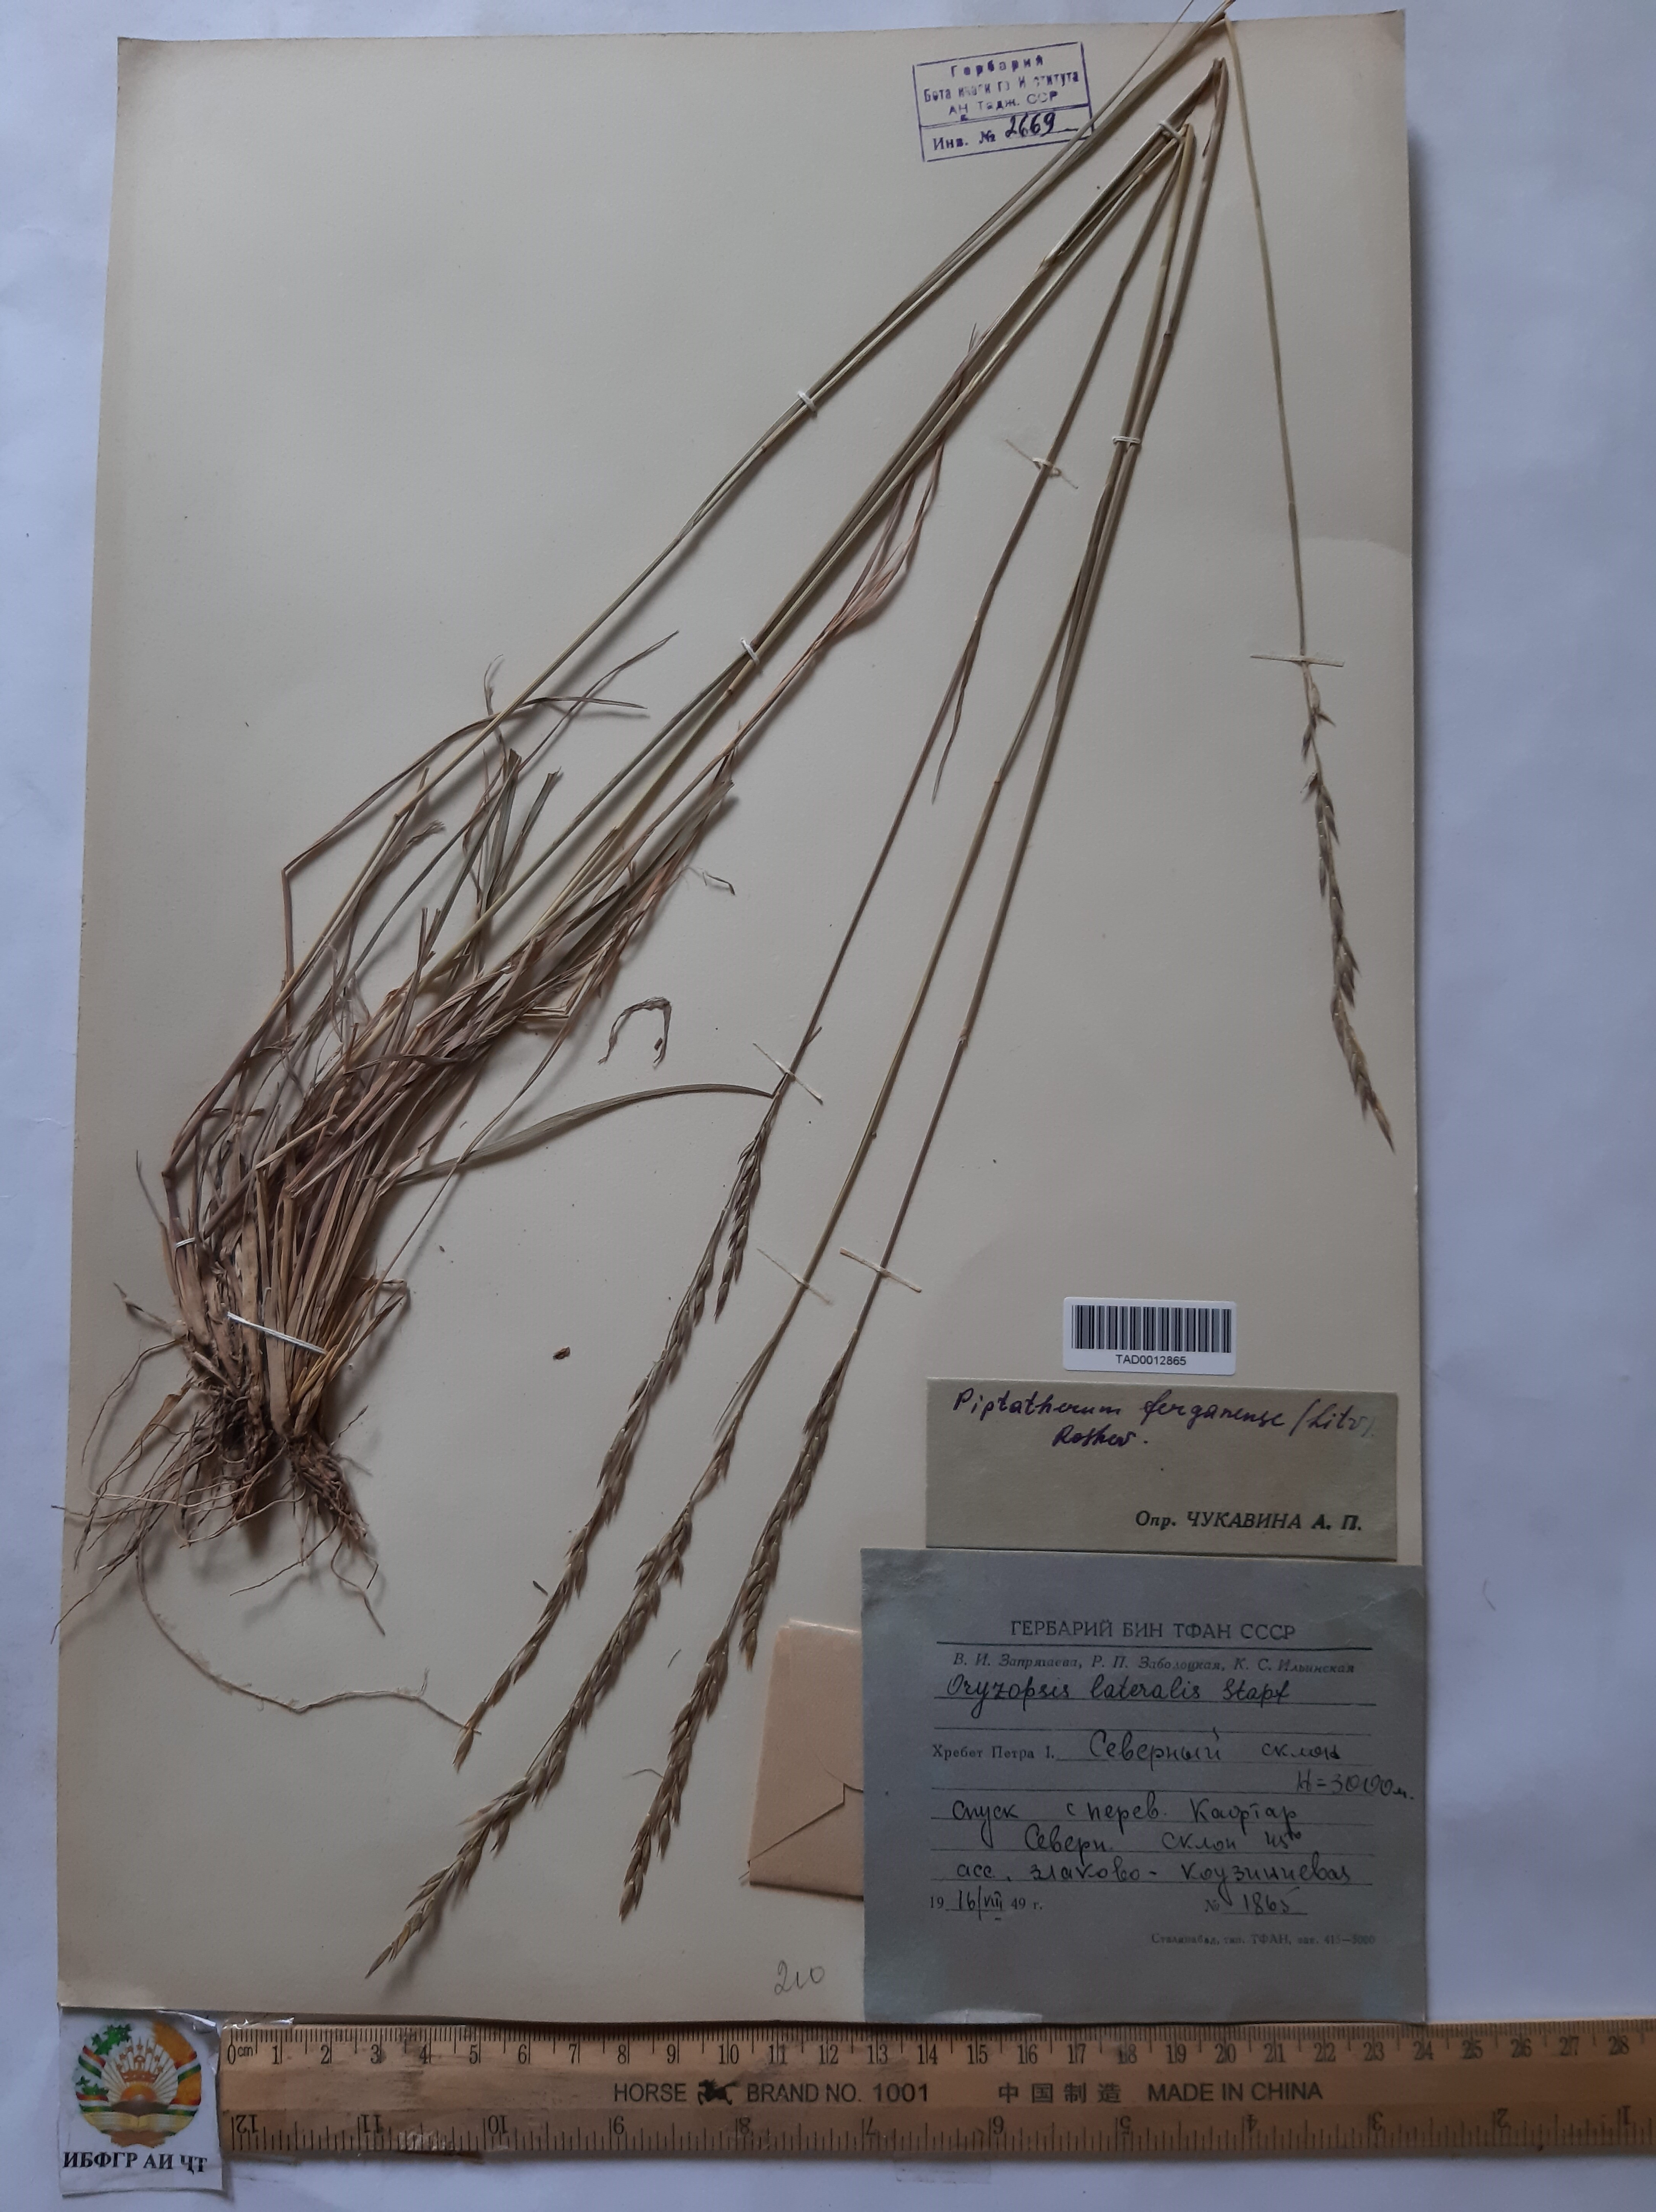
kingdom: Plantae
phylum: Tracheophyta
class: Liliopsida
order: Poales
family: Poaceae
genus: Piptatherum
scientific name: Piptatherum ferganense
